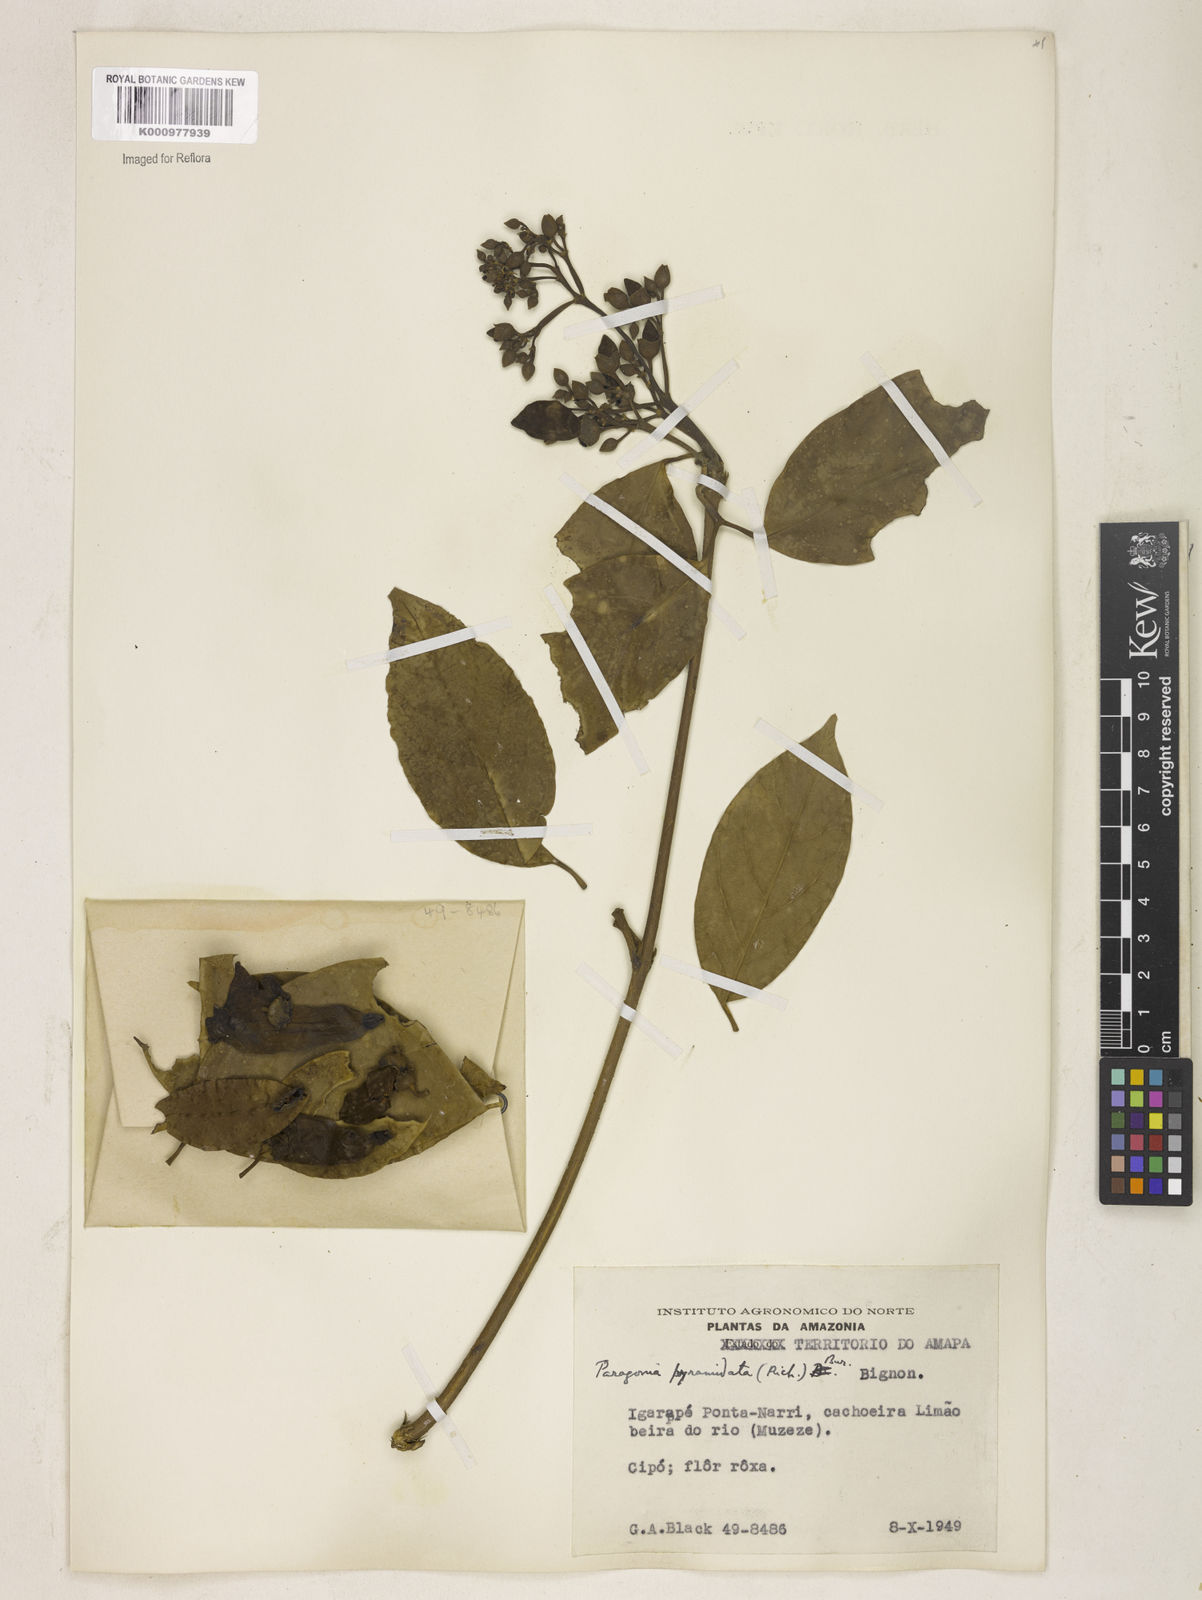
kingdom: Plantae
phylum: Tracheophyta
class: Magnoliopsida
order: Lamiales
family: Bignoniaceae
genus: Tanaecium
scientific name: Tanaecium pyramidatum
